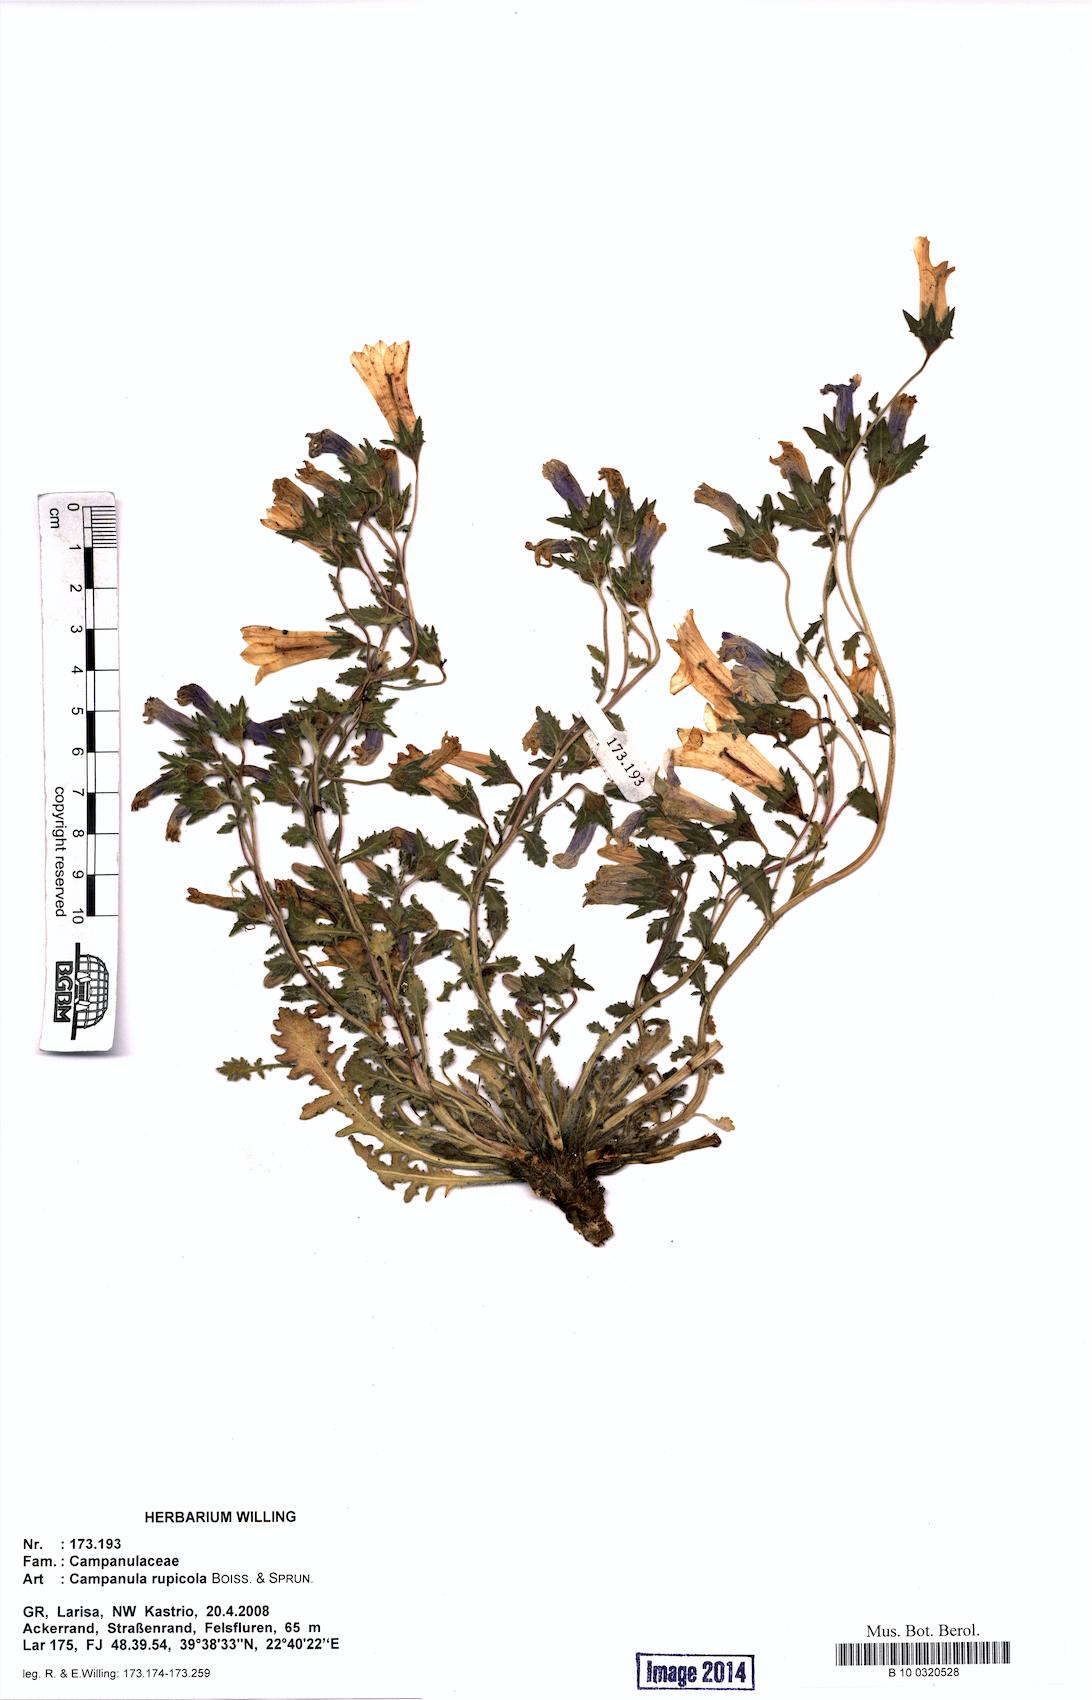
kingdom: Plantae
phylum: Tracheophyta
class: Magnoliopsida
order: Asterales
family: Campanulaceae
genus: Campanula
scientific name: Campanula rupicola
